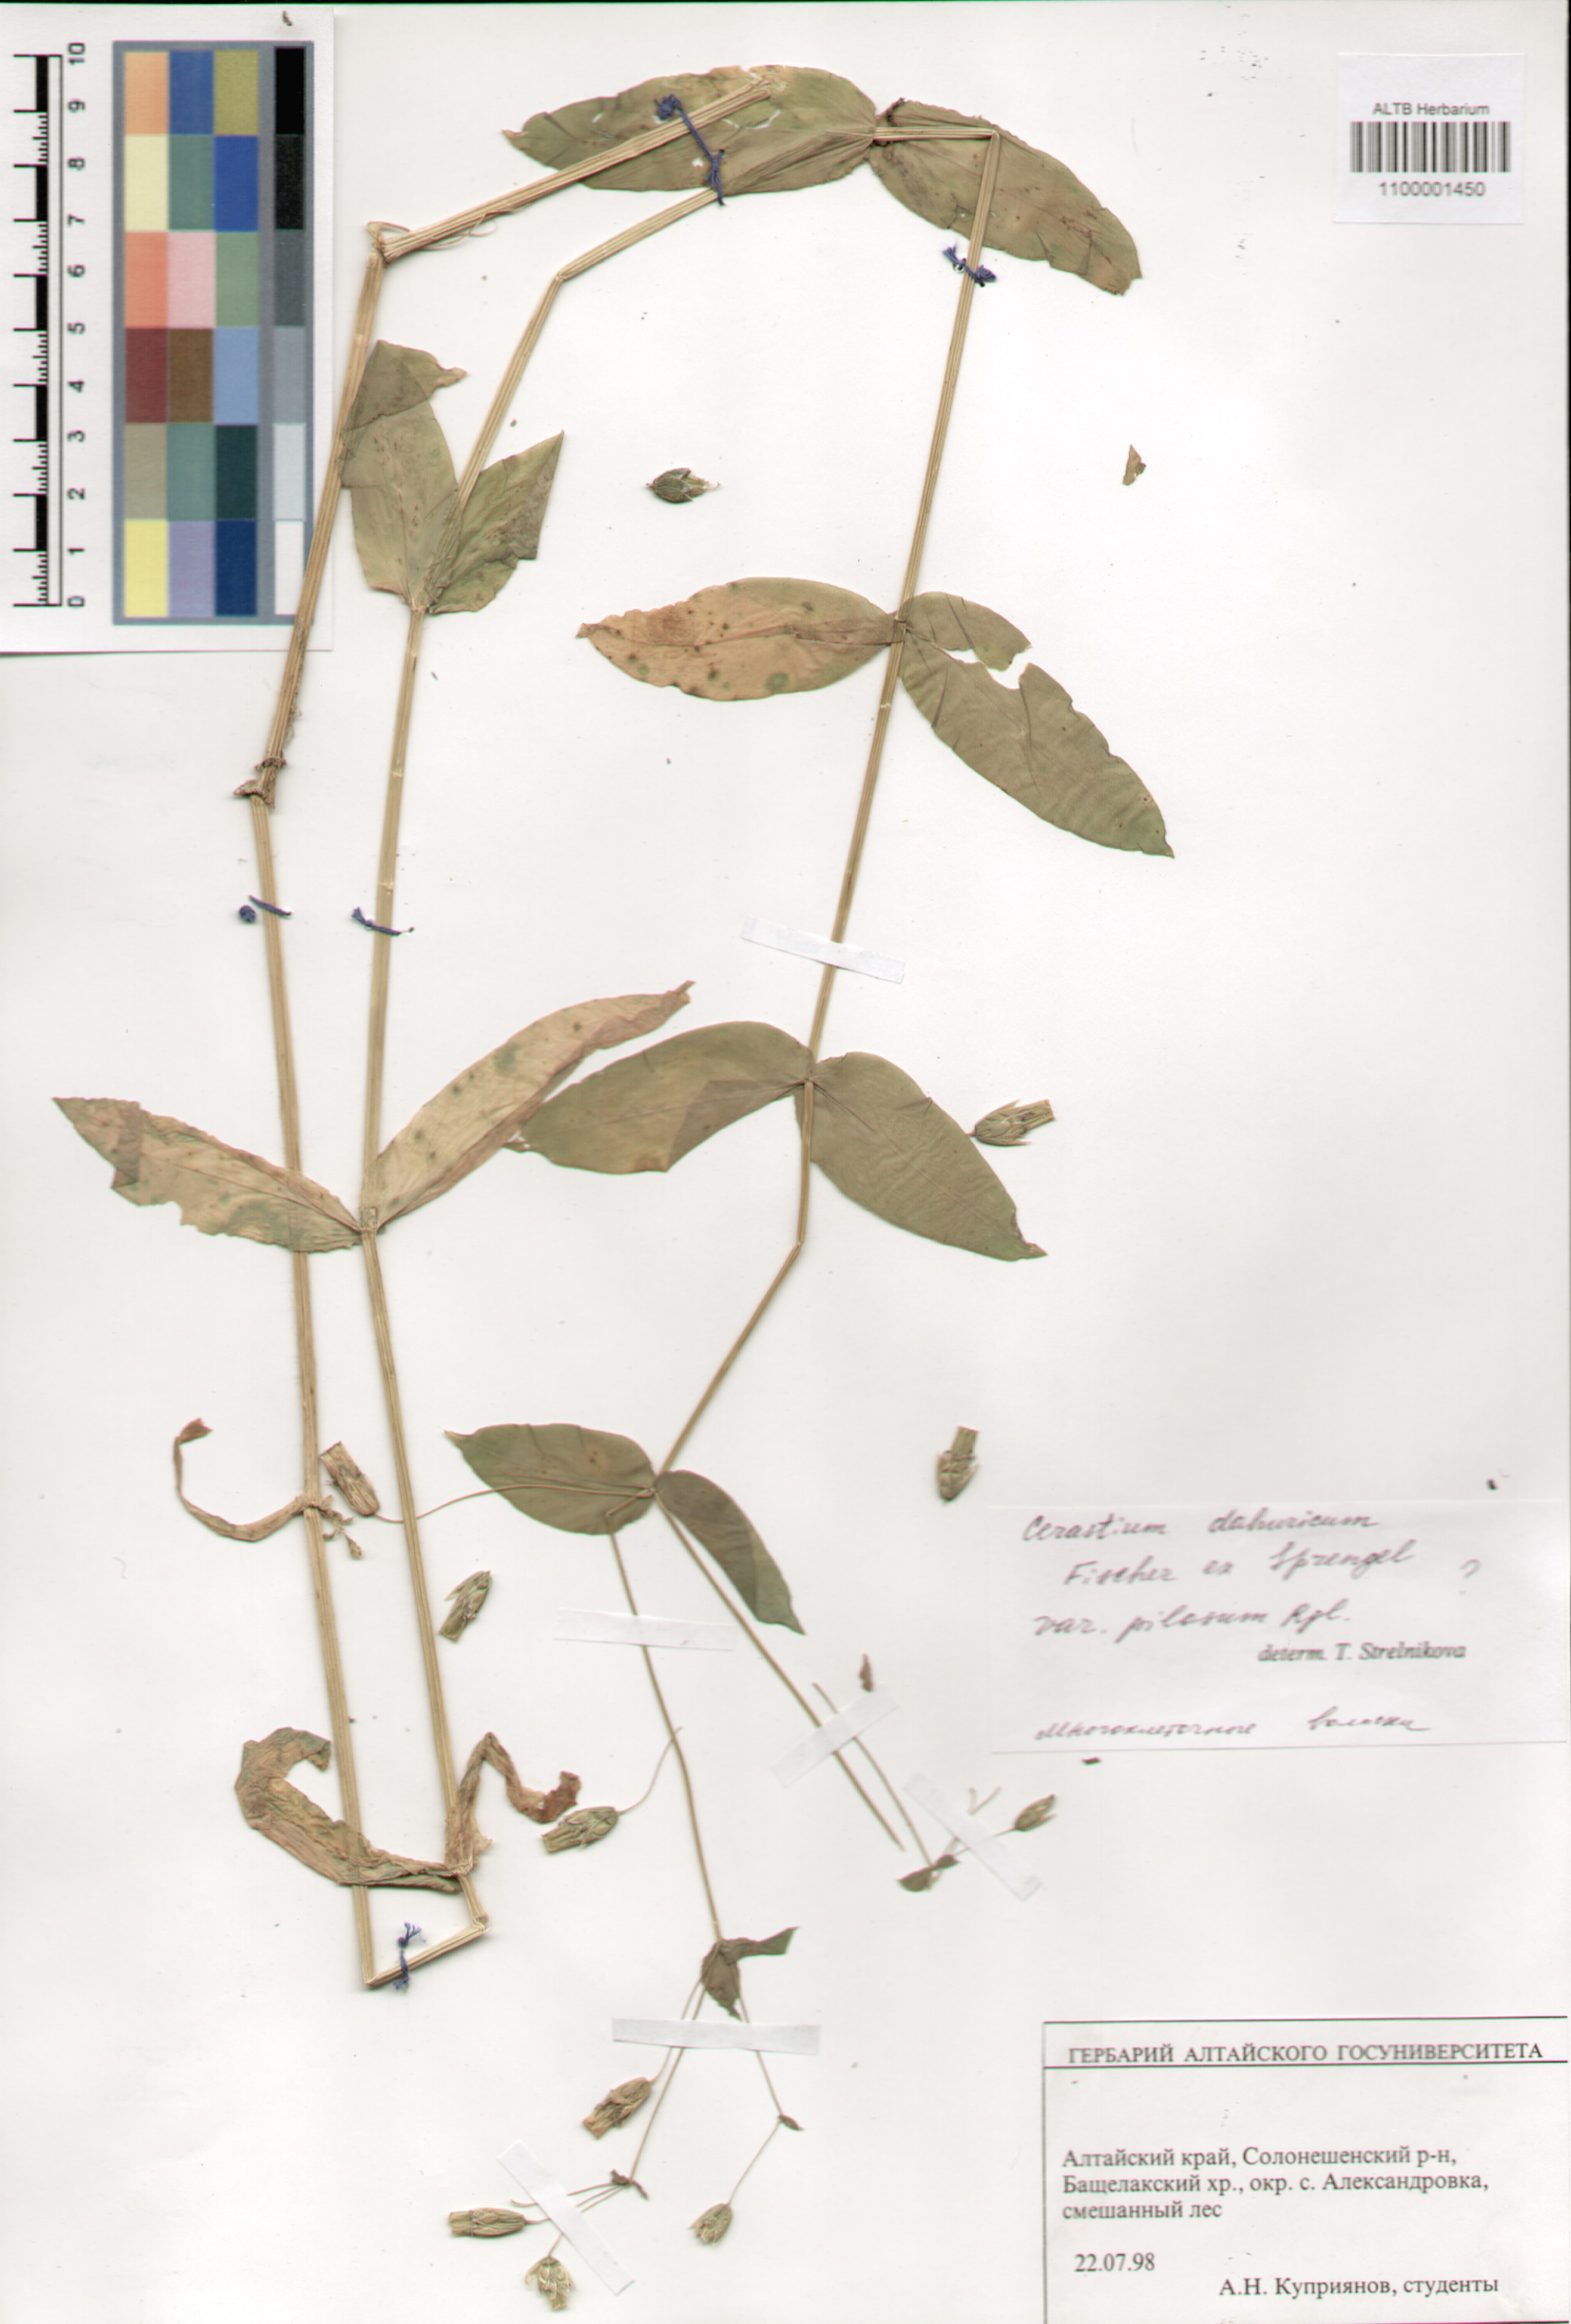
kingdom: Plantae
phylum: Tracheophyta
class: Magnoliopsida
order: Caryophyllales
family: Caryophyllaceae
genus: Dichodon
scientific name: Dichodon davuricum
